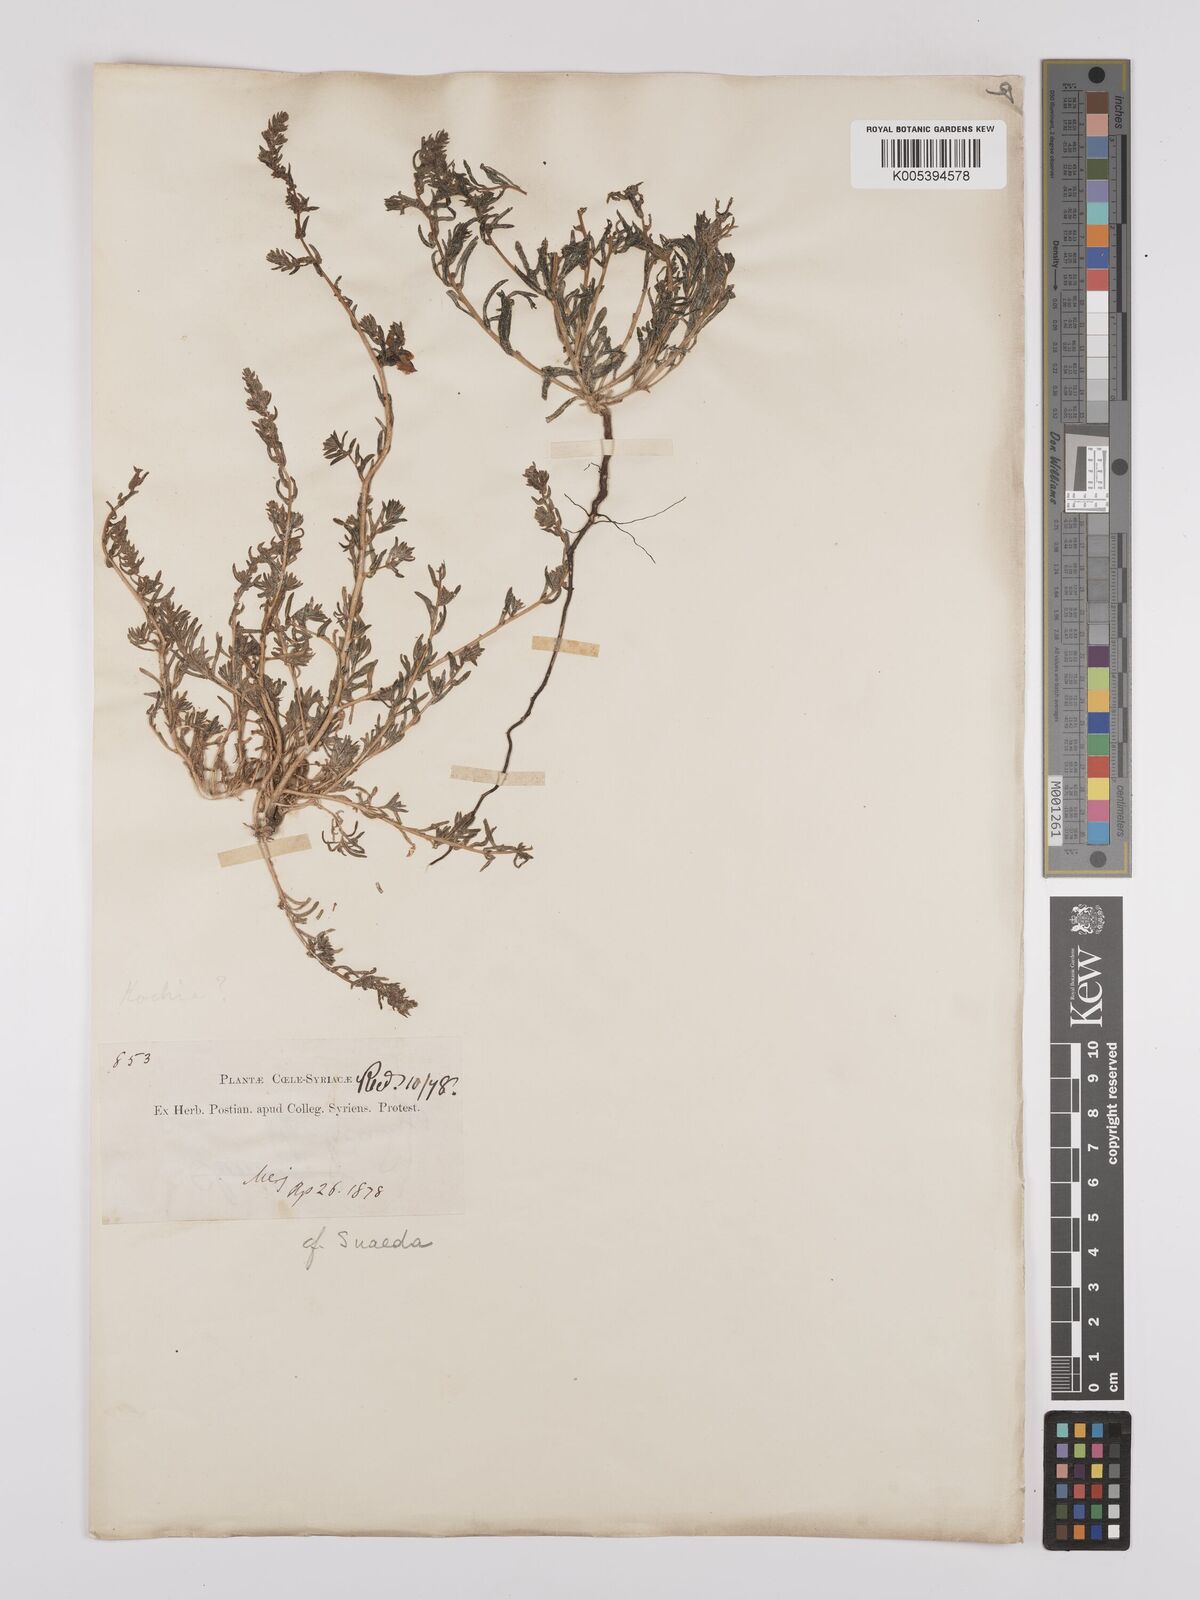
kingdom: Plantae
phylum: Tracheophyta
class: Magnoliopsida
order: Caryophyllales
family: Amaranthaceae
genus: Suaeda
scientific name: Suaeda
